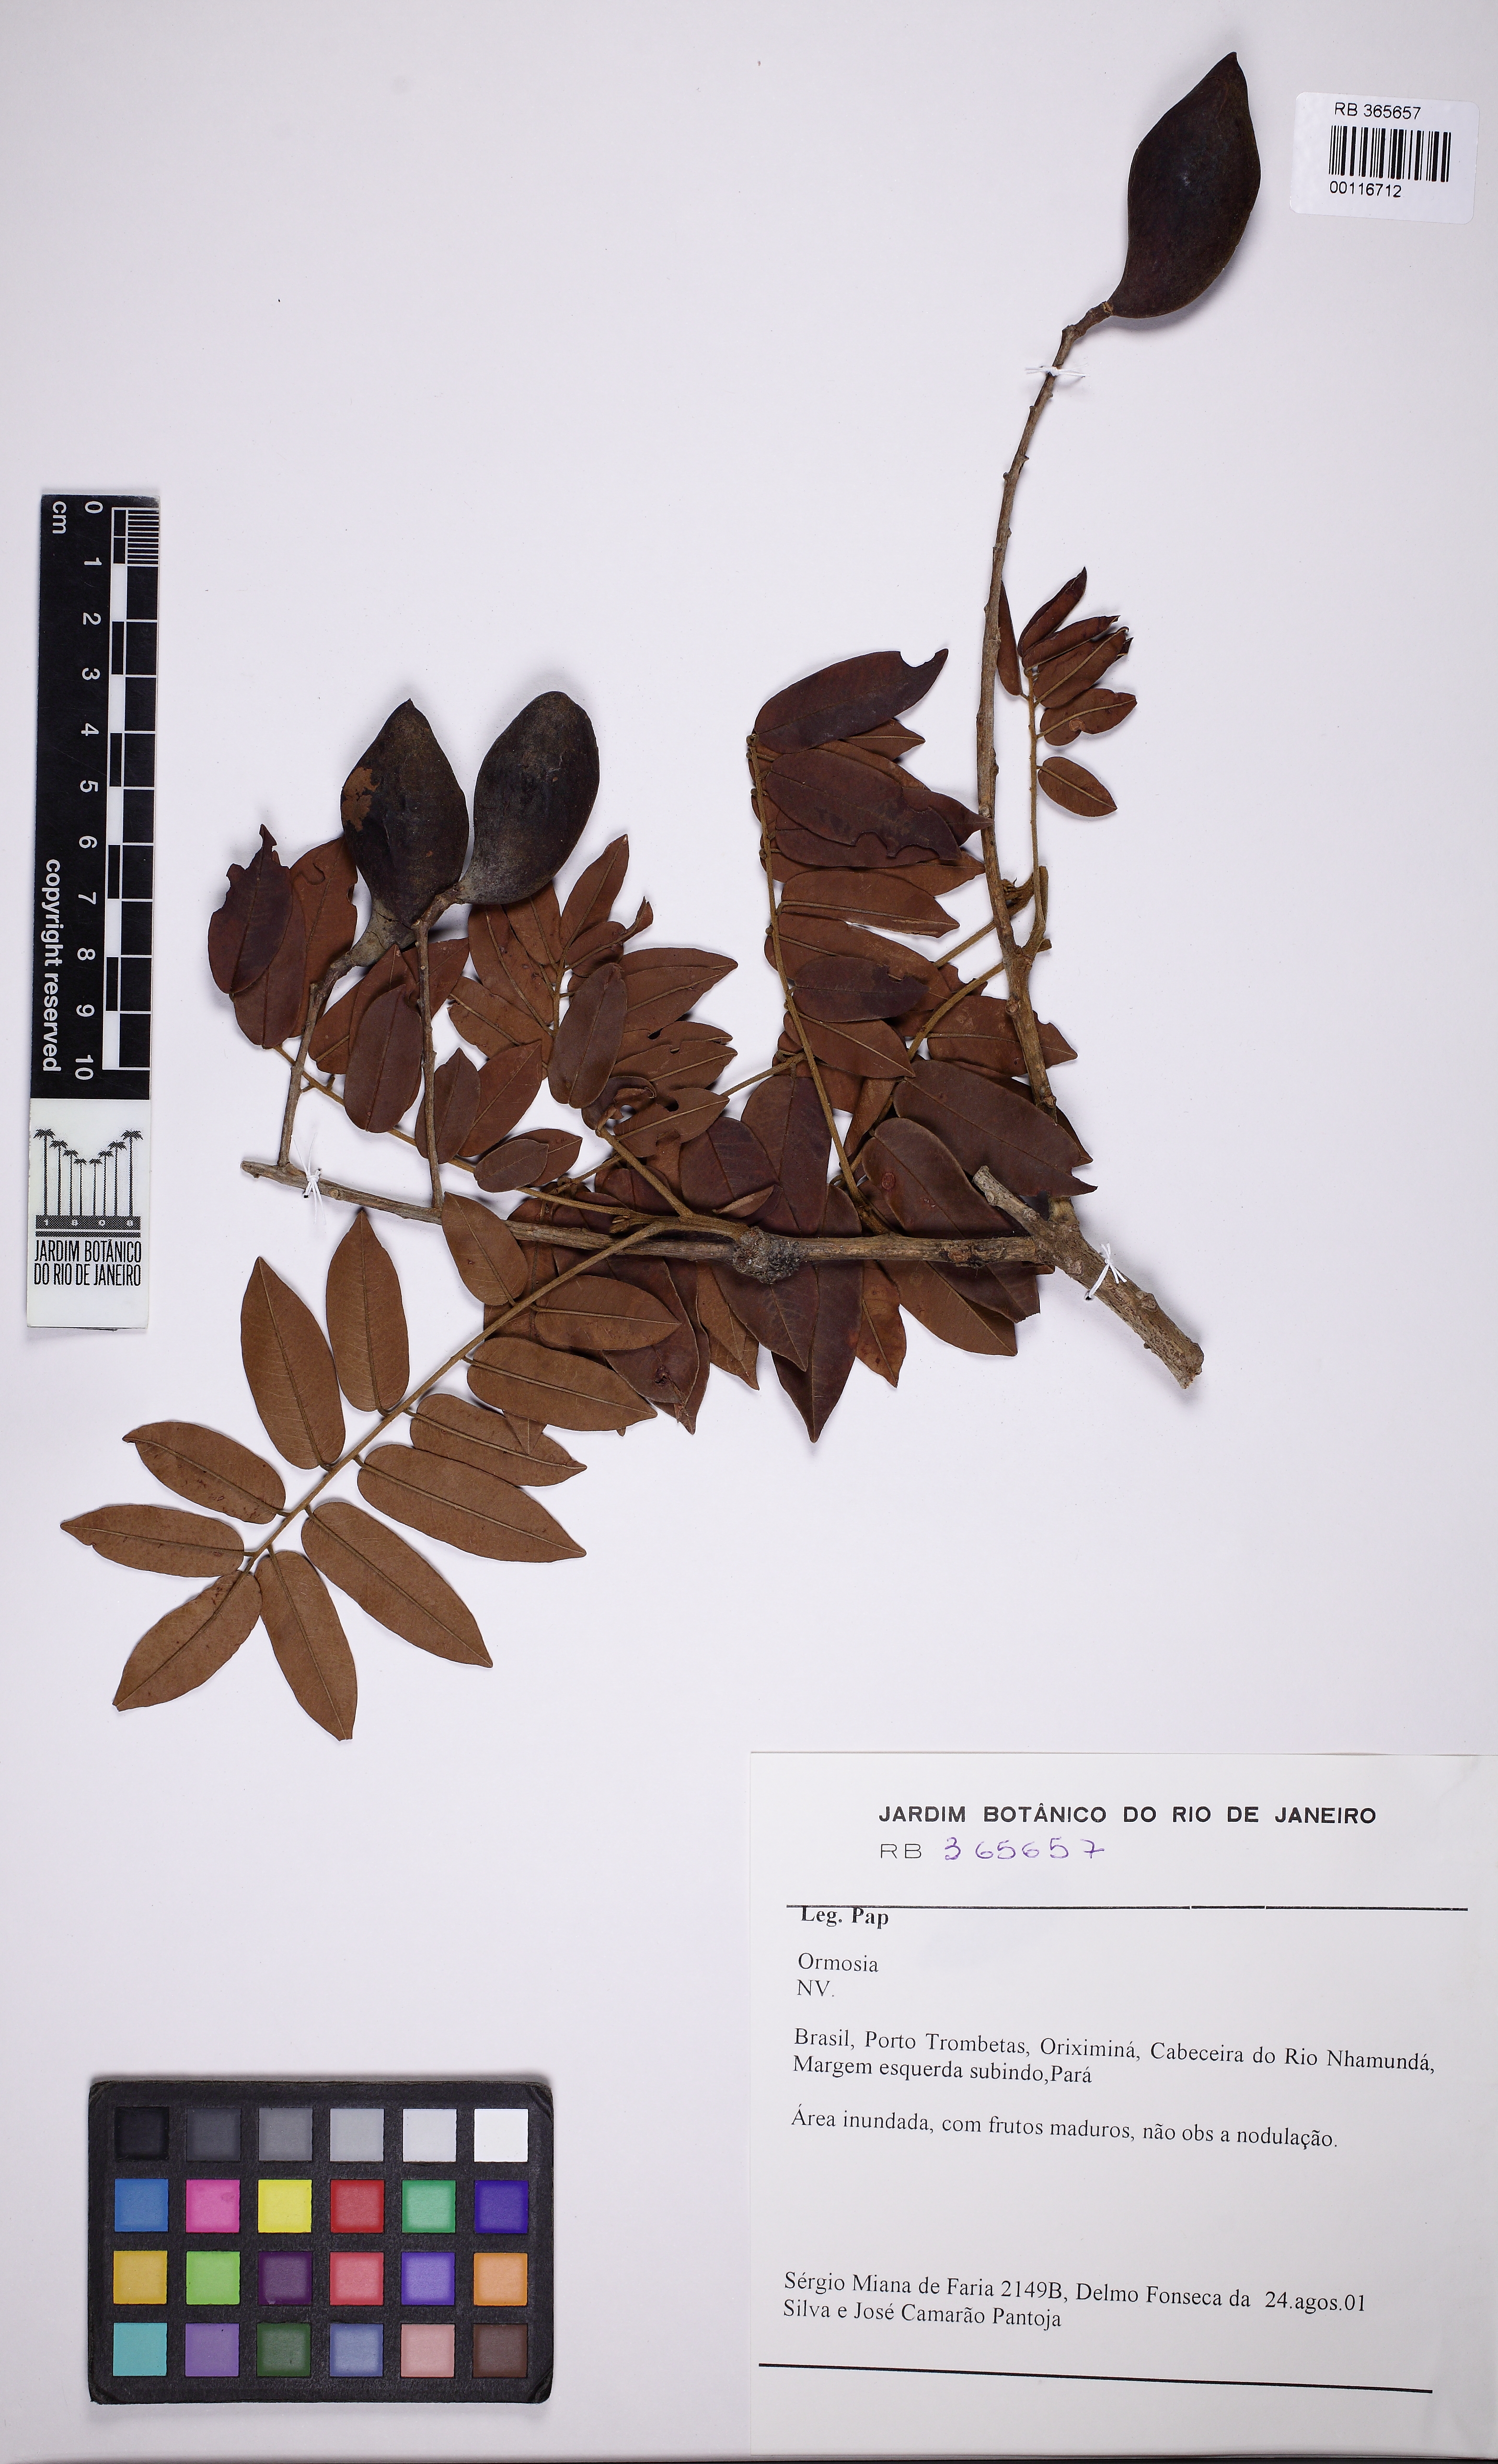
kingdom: Plantae
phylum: Tracheophyta
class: Magnoliopsida
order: Fabales
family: Fabaceae
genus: Ormosia
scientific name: Ormosia excelsa
